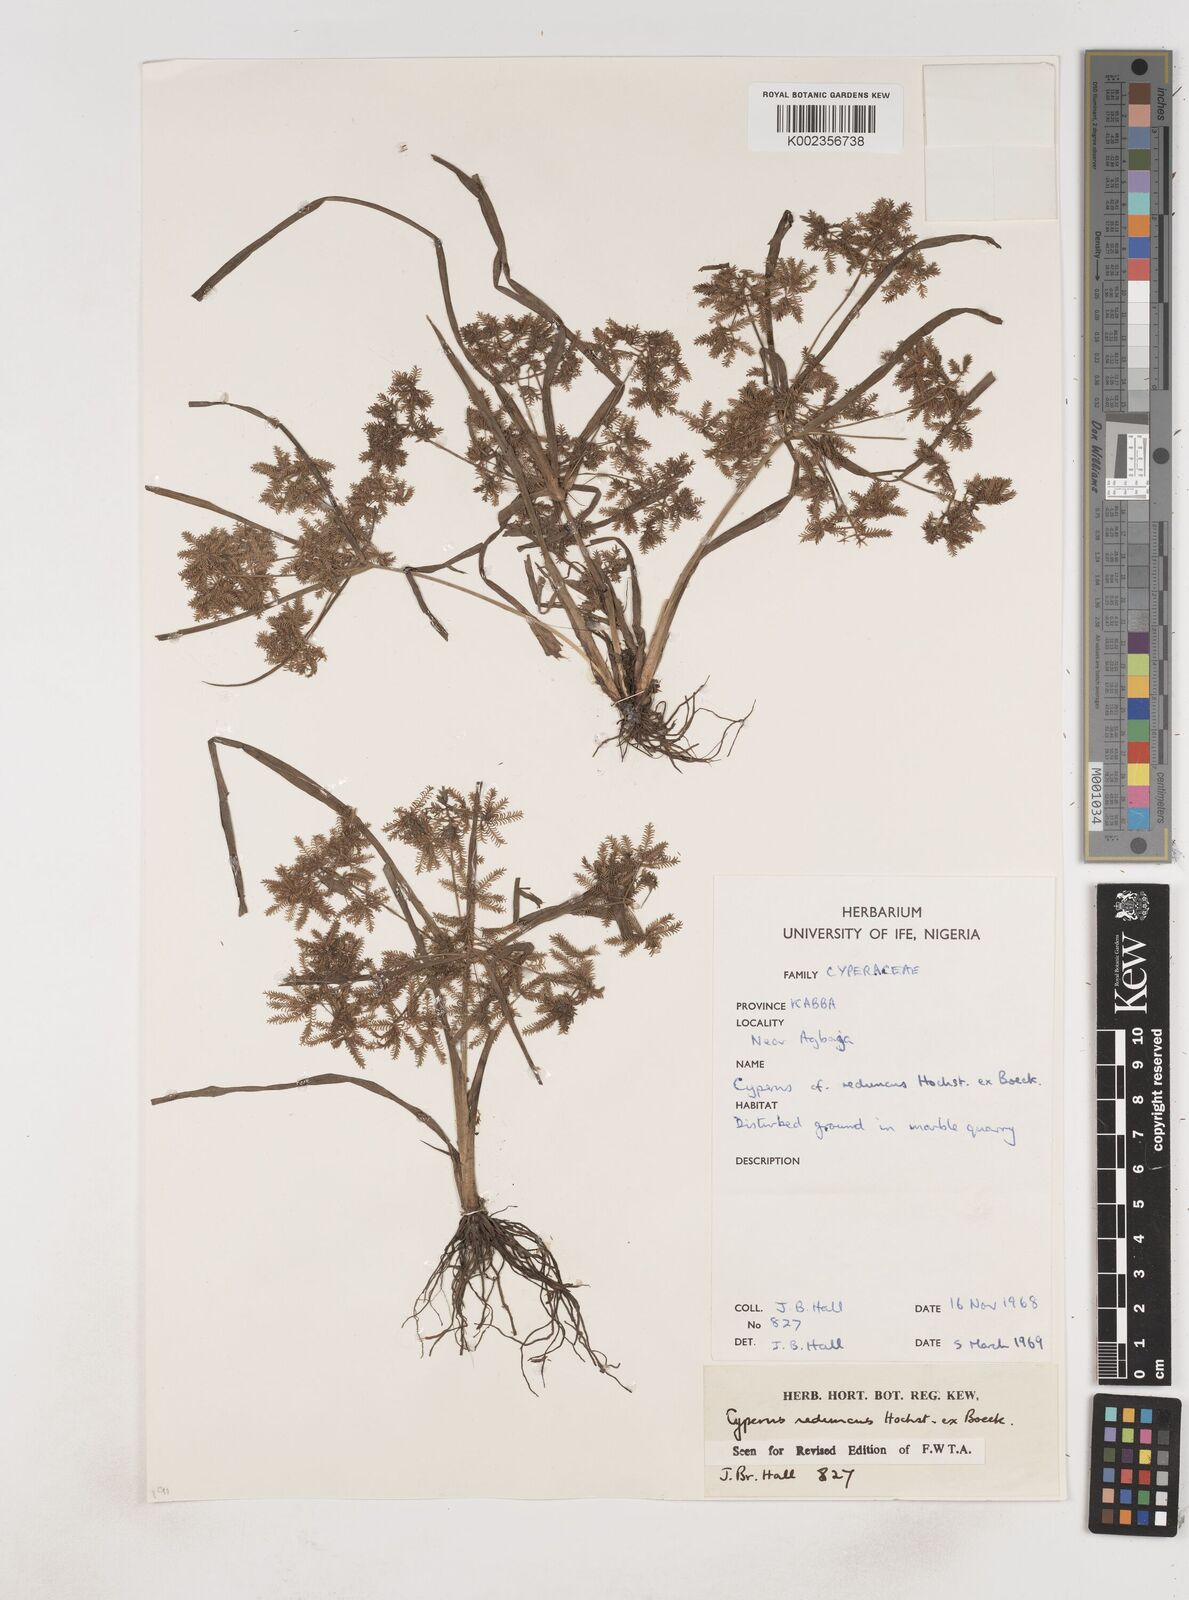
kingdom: Plantae
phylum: Tracheophyta
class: Liliopsida
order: Poales
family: Cyperaceae
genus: Cyperus
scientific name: Cyperus reduncus
